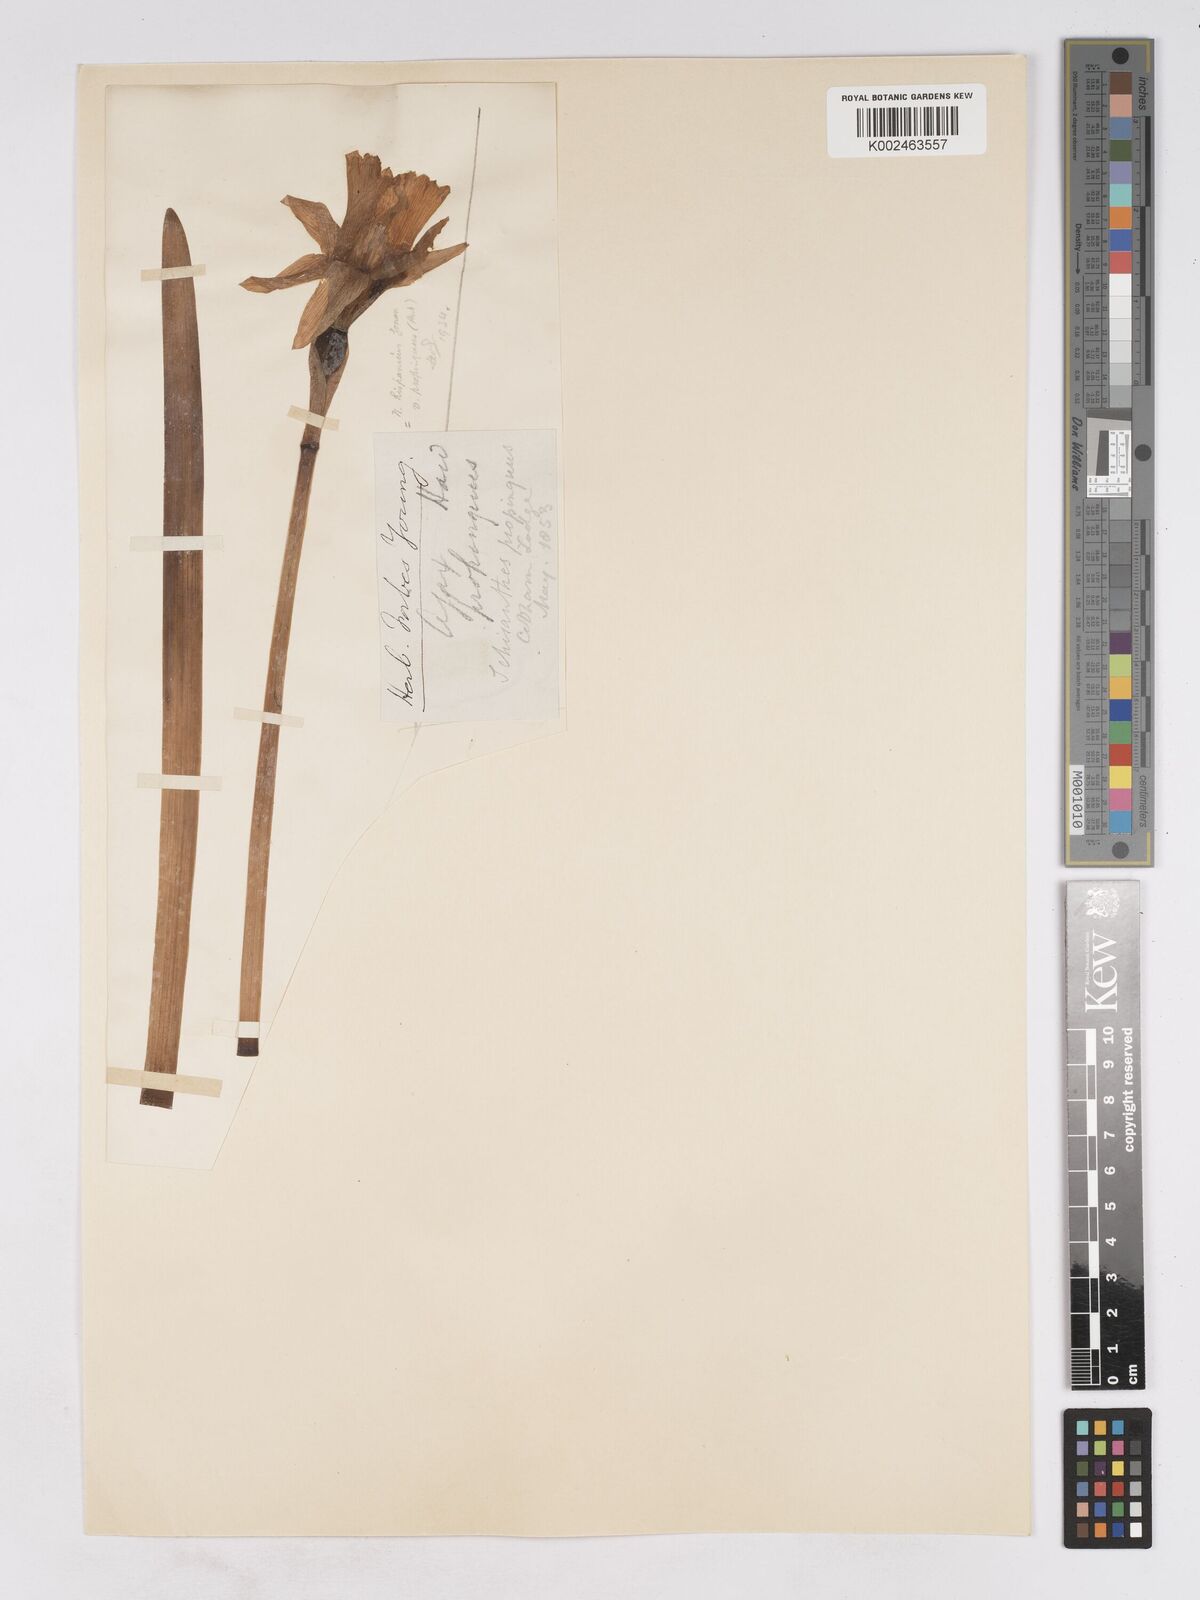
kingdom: Plantae
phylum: Tracheophyta
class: Liliopsida
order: Asparagales
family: Amaryllidaceae
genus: Narcissus
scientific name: Narcissus hispanicus
